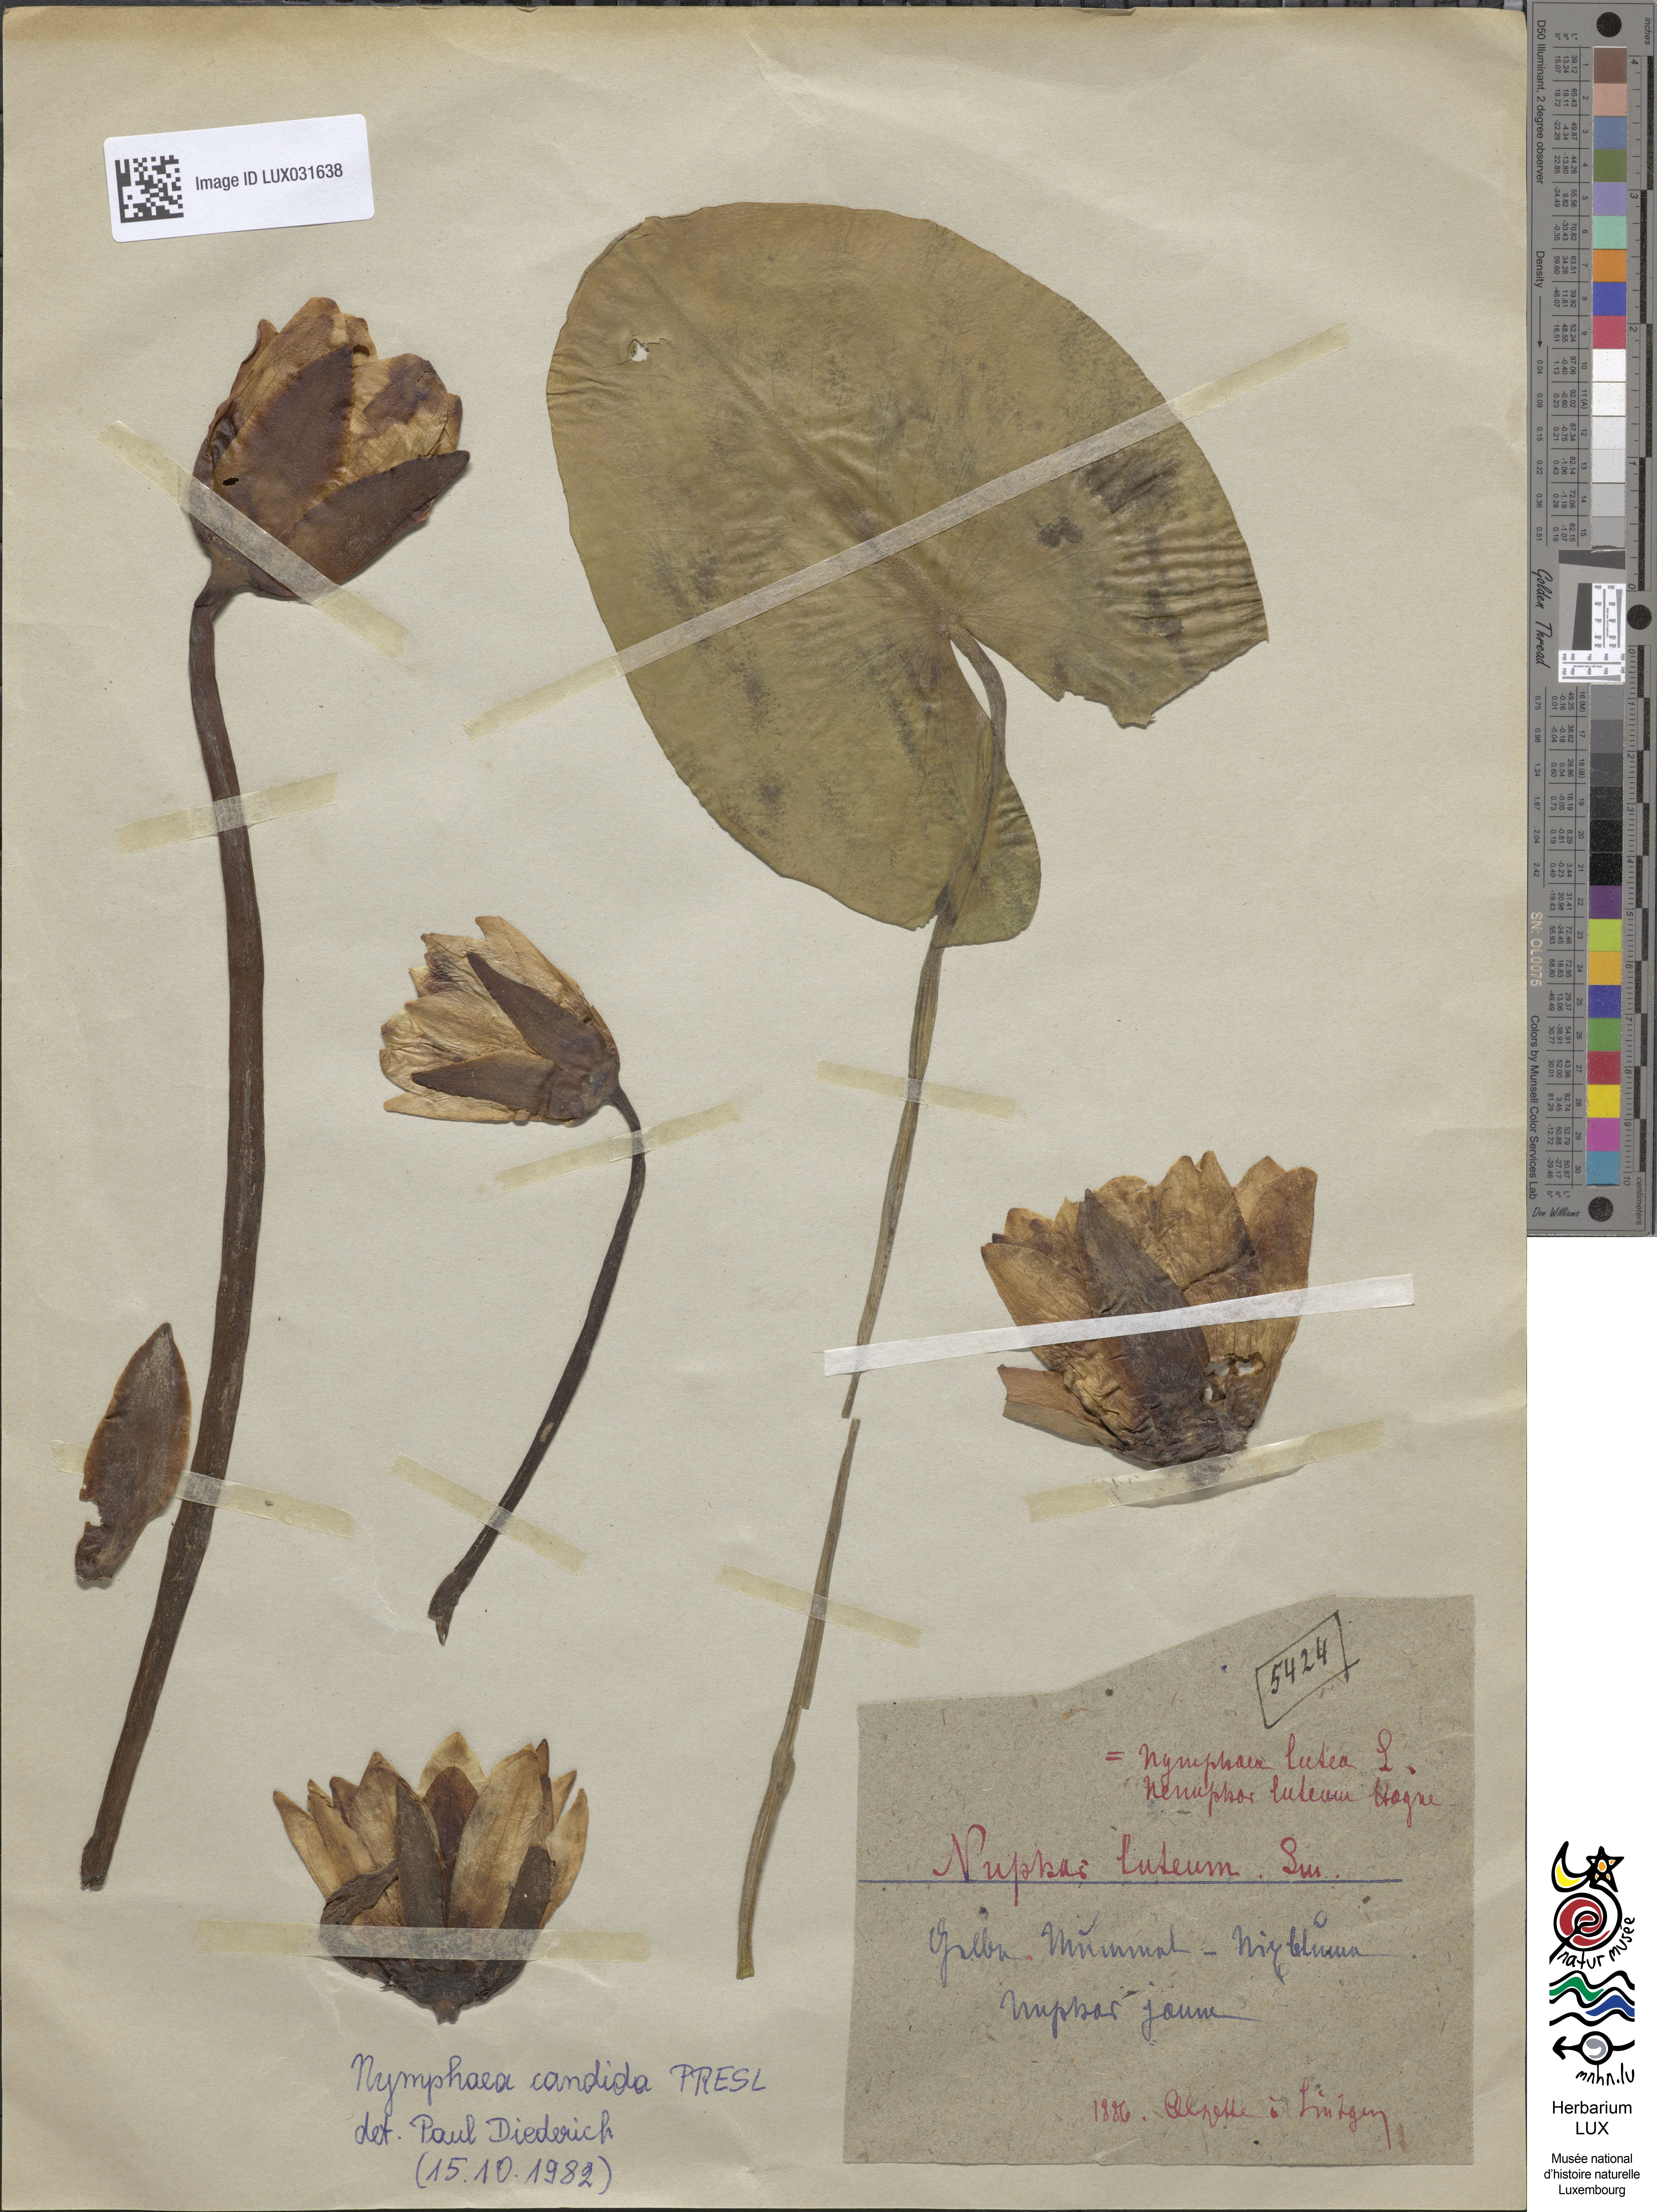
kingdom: Plantae
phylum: Tracheophyta
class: Magnoliopsida
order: Nymphaeales
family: Nymphaeaceae
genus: Nuphar
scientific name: Nuphar lutea
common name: Yellow water-lily
